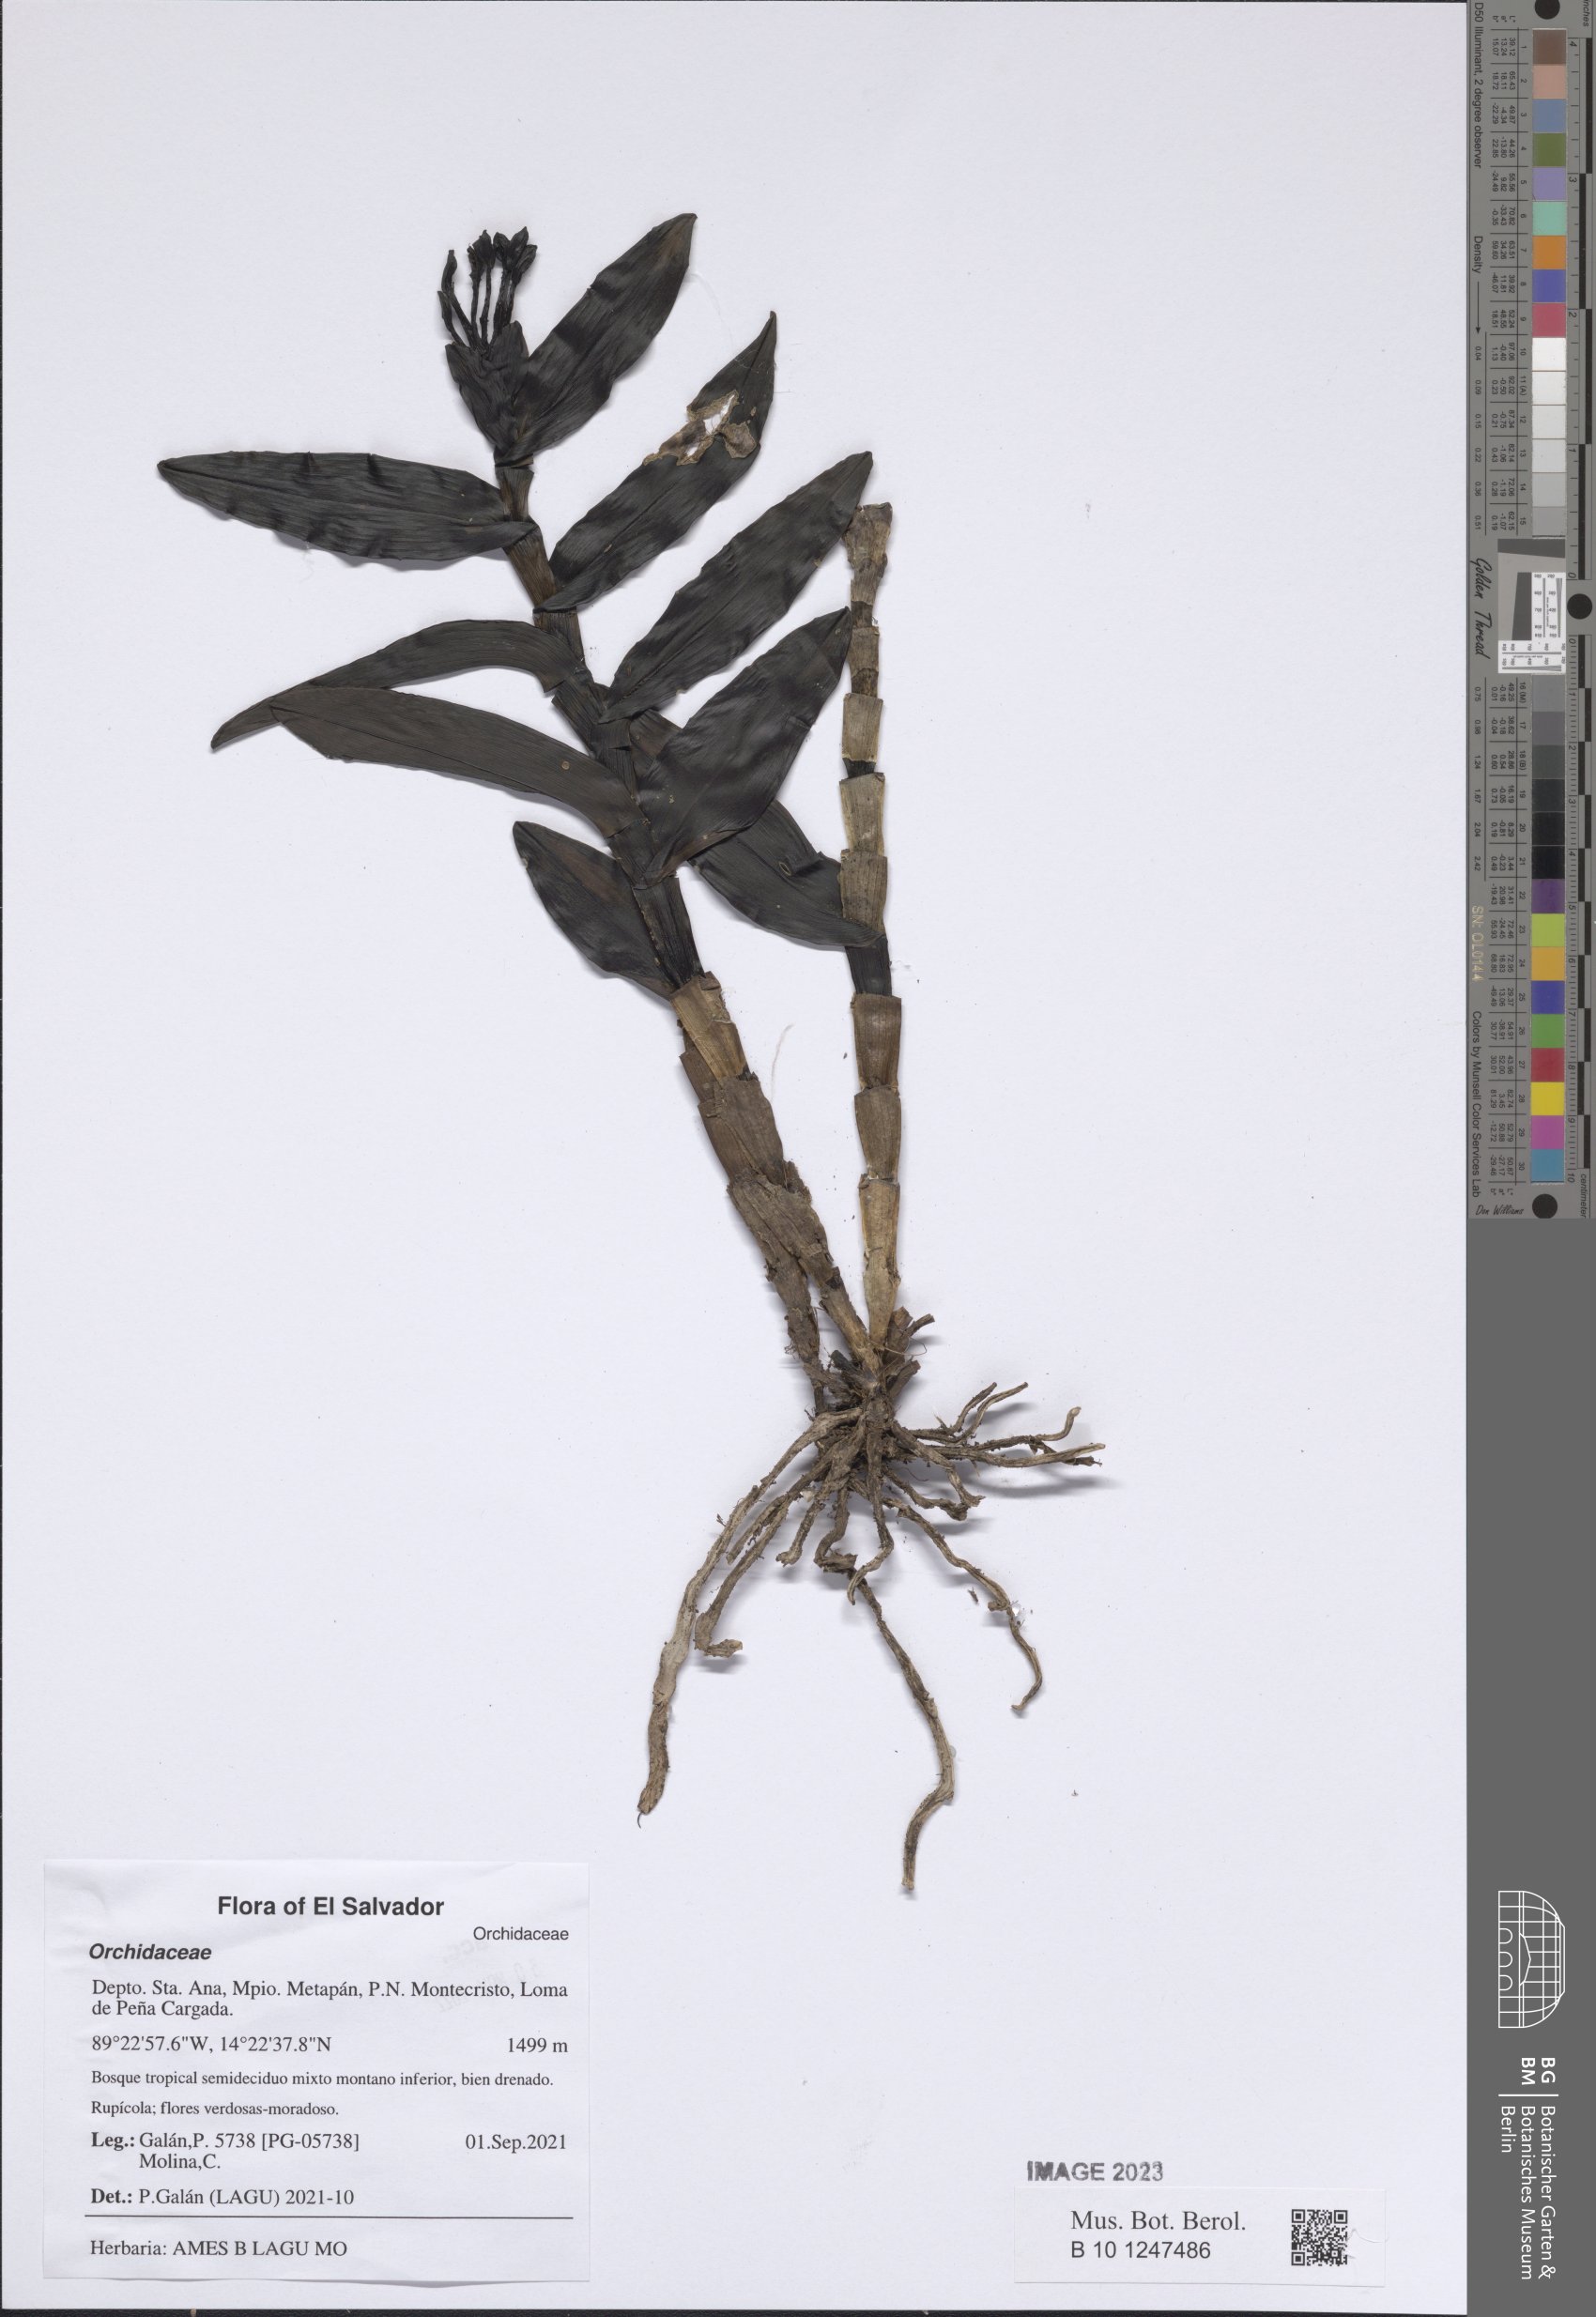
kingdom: Plantae
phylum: Tracheophyta
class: Liliopsida
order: Asparagales
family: Orchidaceae
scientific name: Orchidaceae
